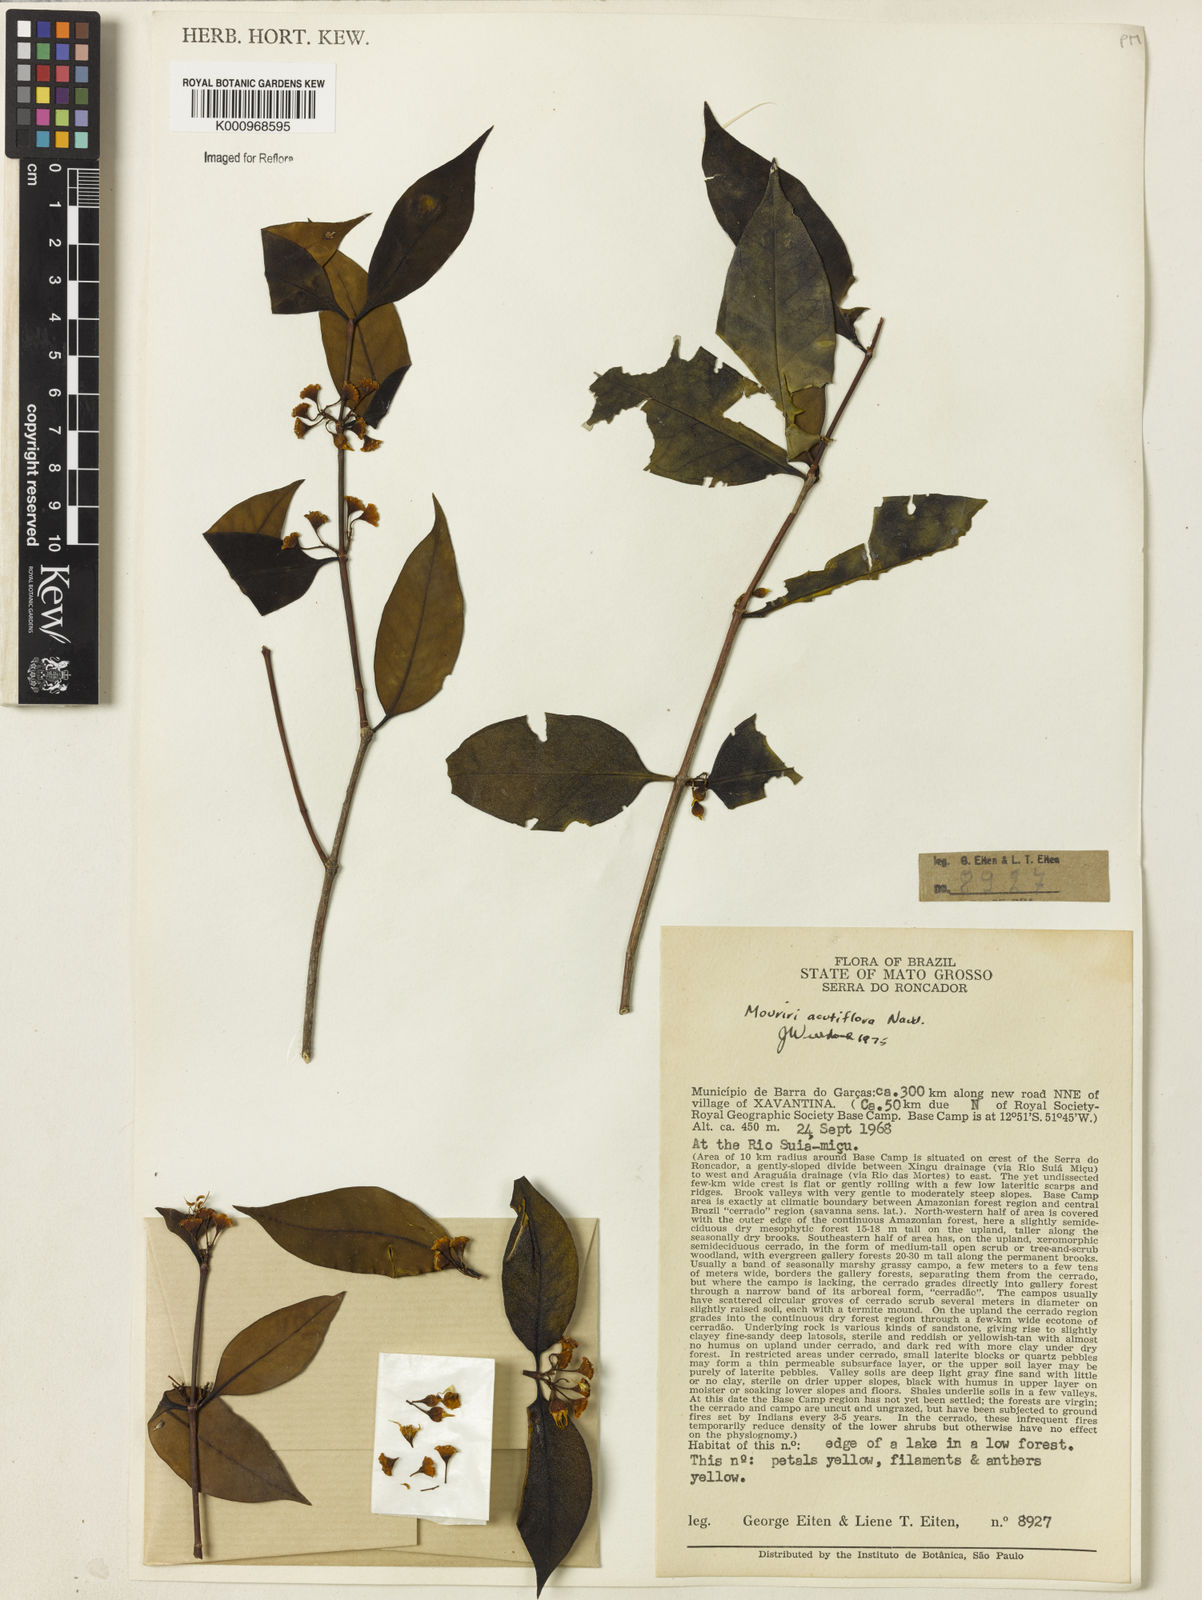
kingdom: Plantae
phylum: Tracheophyta
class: Magnoliopsida
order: Myrtales
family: Melastomataceae
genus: Mouriri
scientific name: Mouriri acutiflora
